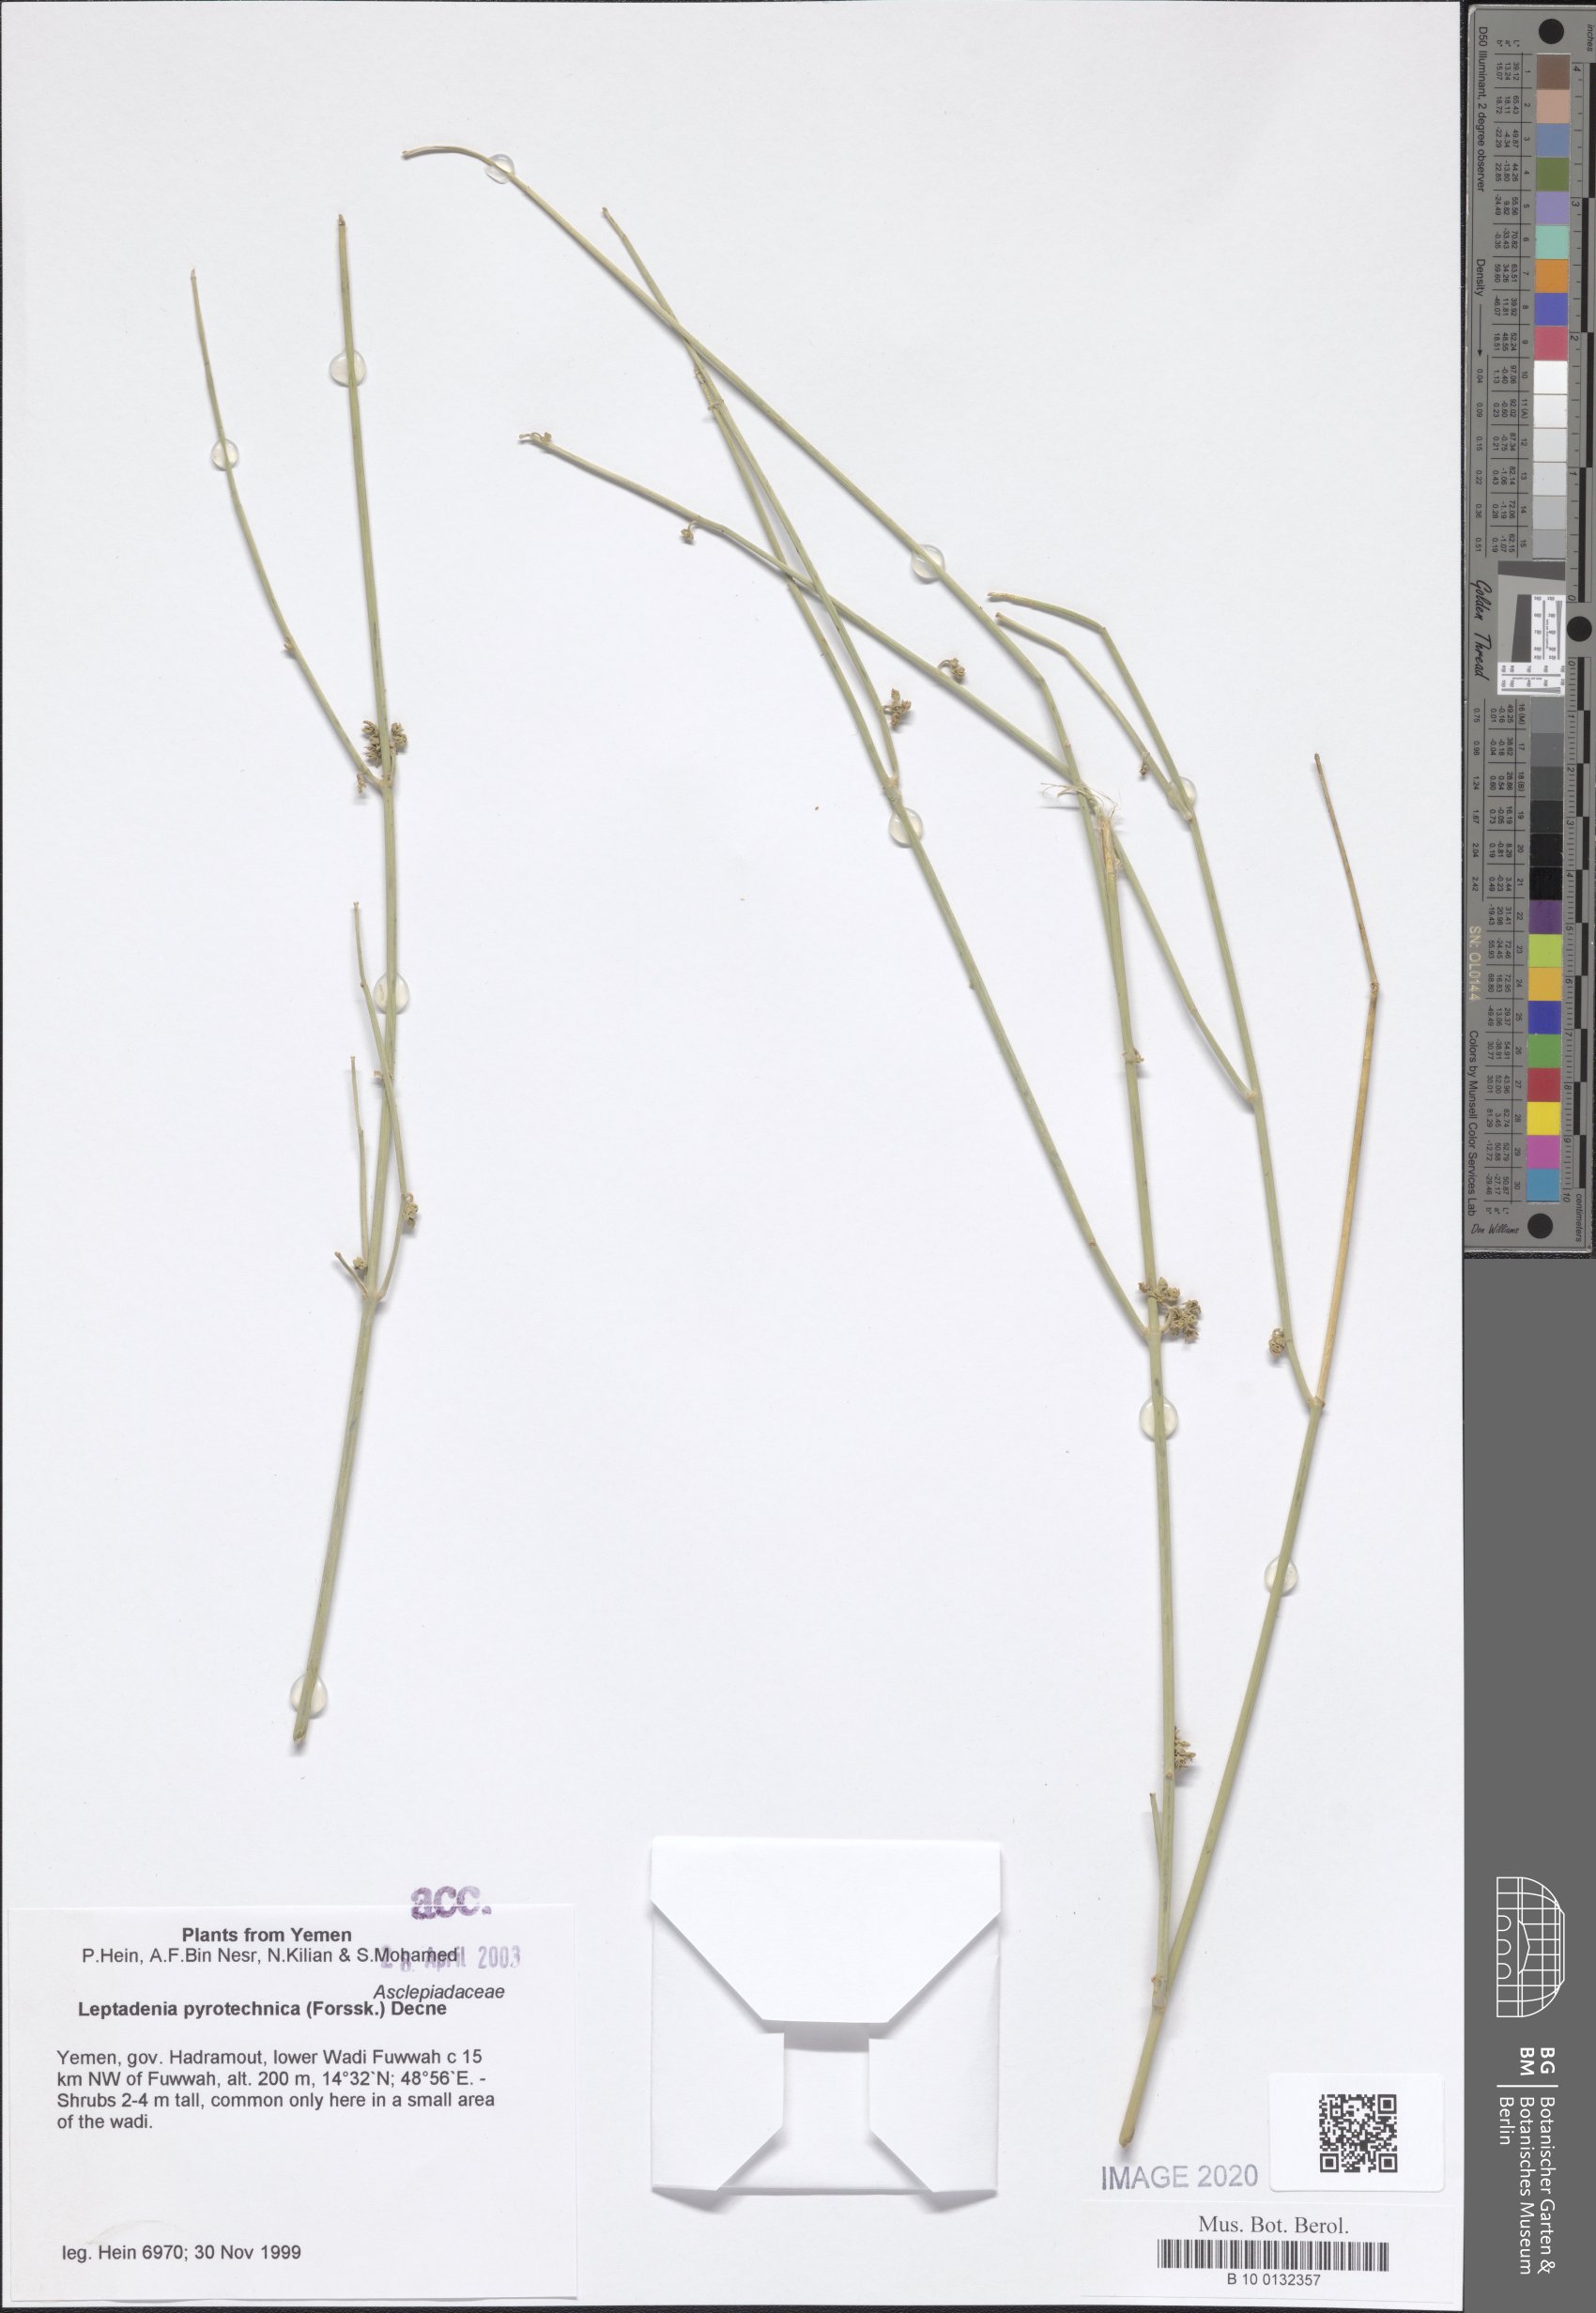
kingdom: Plantae
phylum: Tracheophyta
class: Magnoliopsida
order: Gentianales
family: Apocynaceae
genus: Leptadenia
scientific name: Leptadenia pyrotechnica
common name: Broom brush
